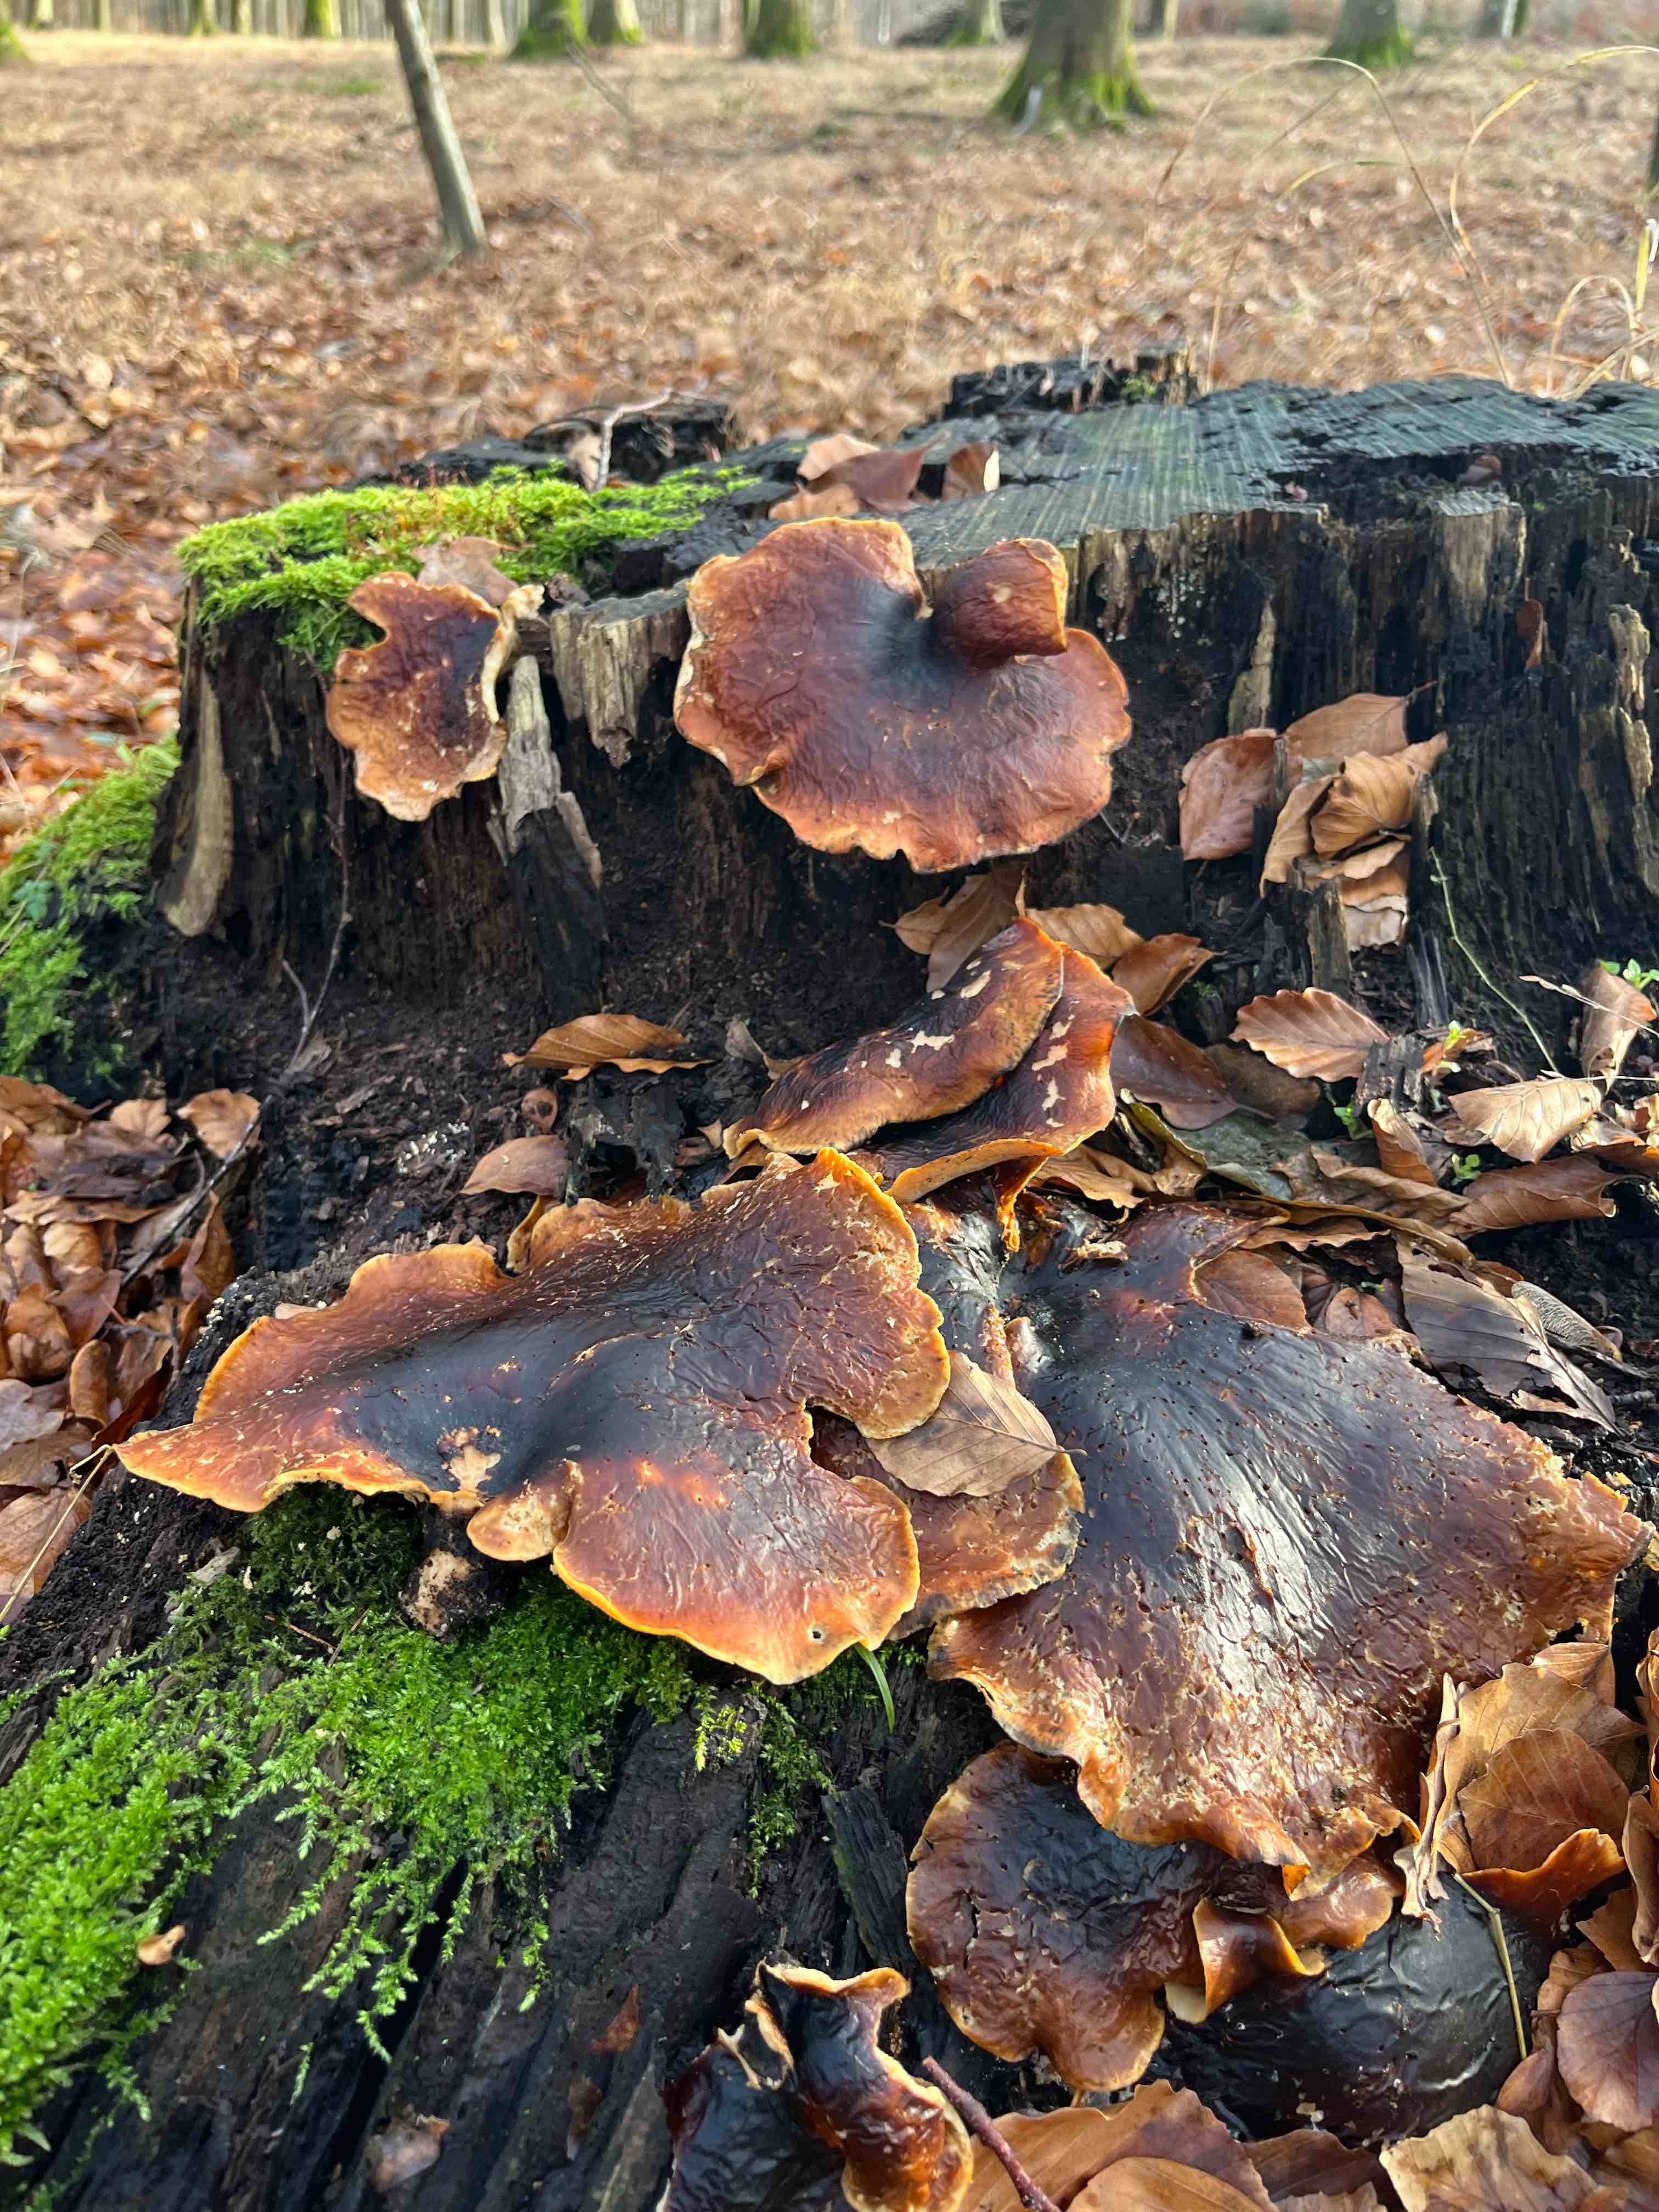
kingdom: Fungi
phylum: Basidiomycota
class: Agaricomycetes
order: Polyporales
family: Polyporaceae
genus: Picipes
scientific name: Picipes badius
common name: kastaniebrun stilkporesvamp
